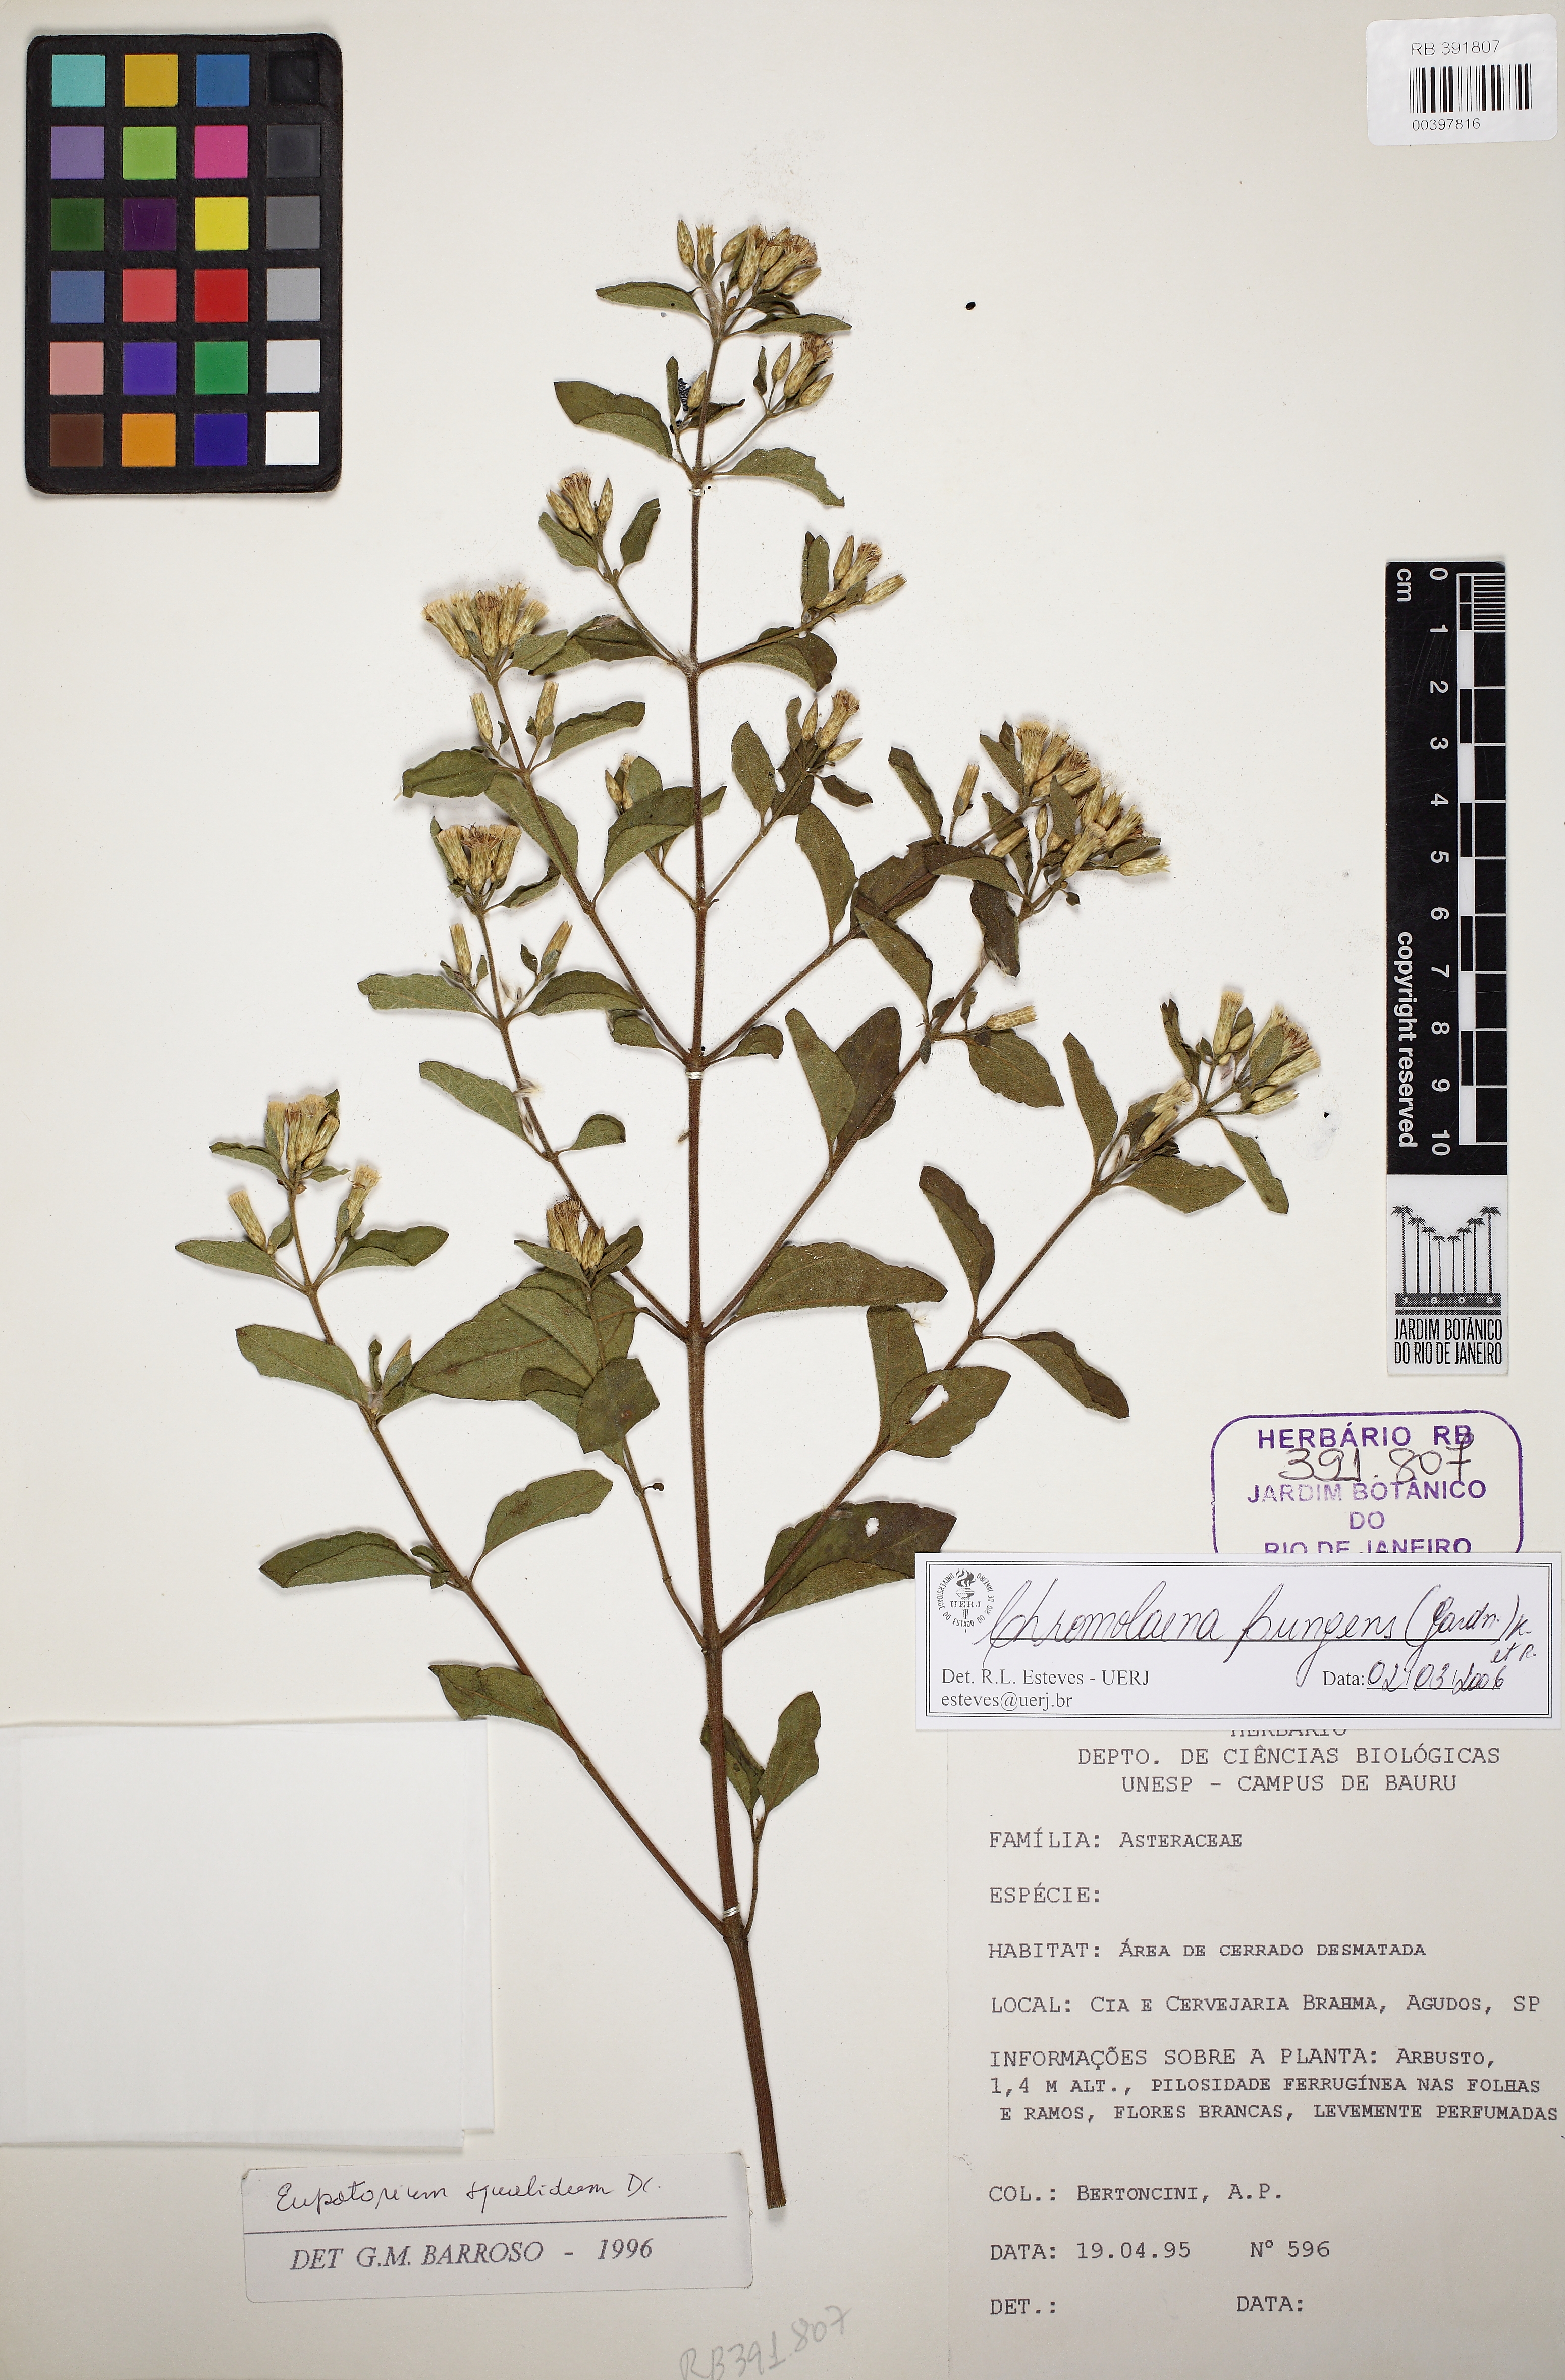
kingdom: Plantae
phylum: Tracheophyta
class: Magnoliopsida
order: Asterales
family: Asteraceae
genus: Chromolaena
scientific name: Chromolaena pungens
